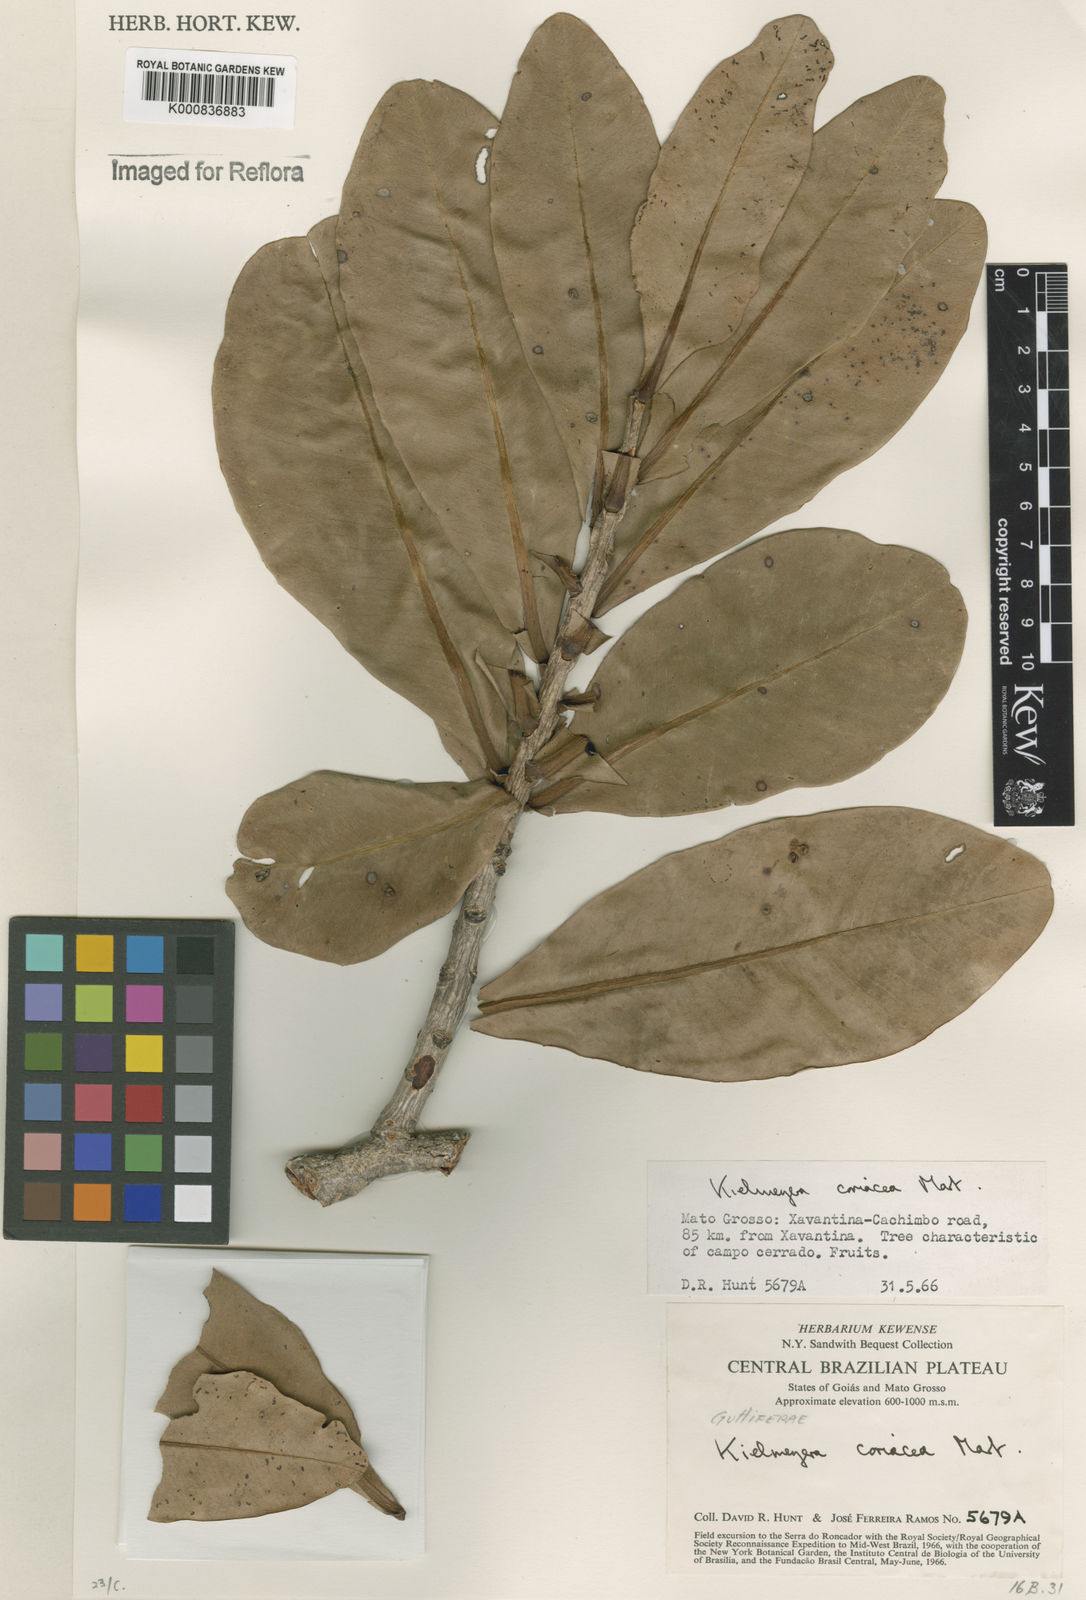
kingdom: Plantae
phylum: Tracheophyta
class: Magnoliopsida
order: Malpighiales
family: Calophyllaceae
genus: Kielmeyera
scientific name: Kielmeyera coriacea
